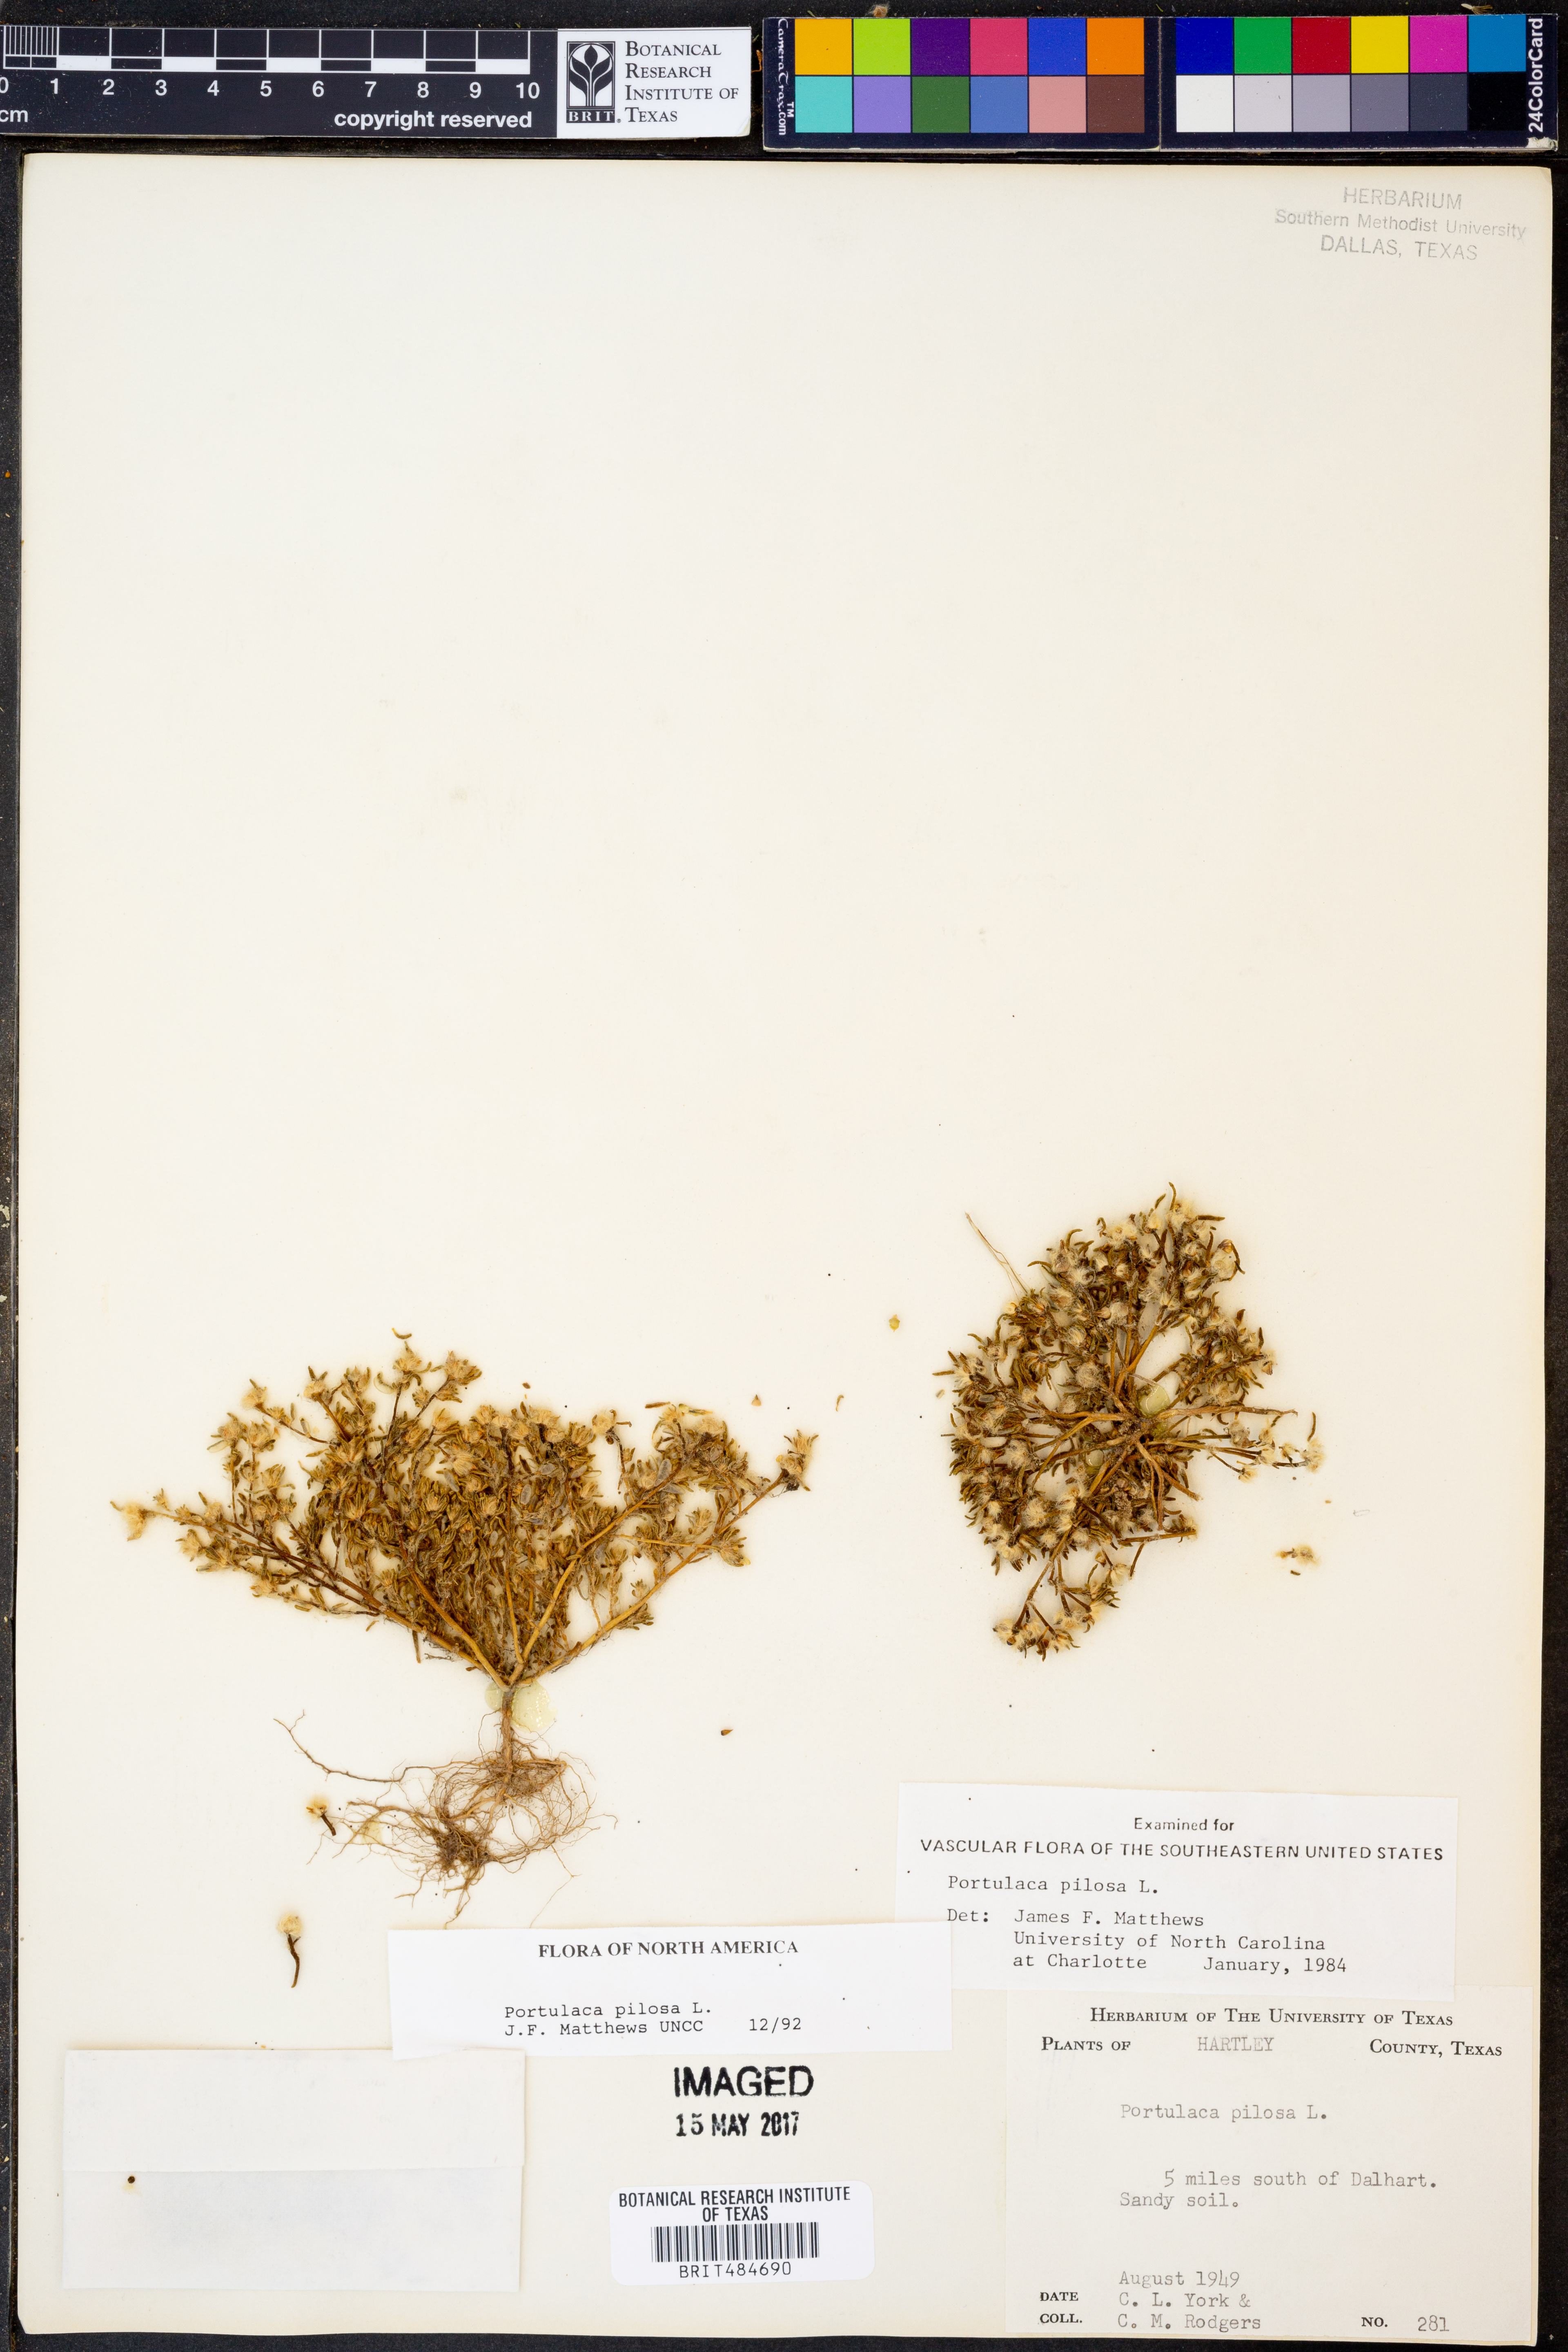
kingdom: Plantae
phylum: Tracheophyta
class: Magnoliopsida
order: Caryophyllales
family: Portulacaceae
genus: Portulaca
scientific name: Portulaca pilosa
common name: Kiss me quick
